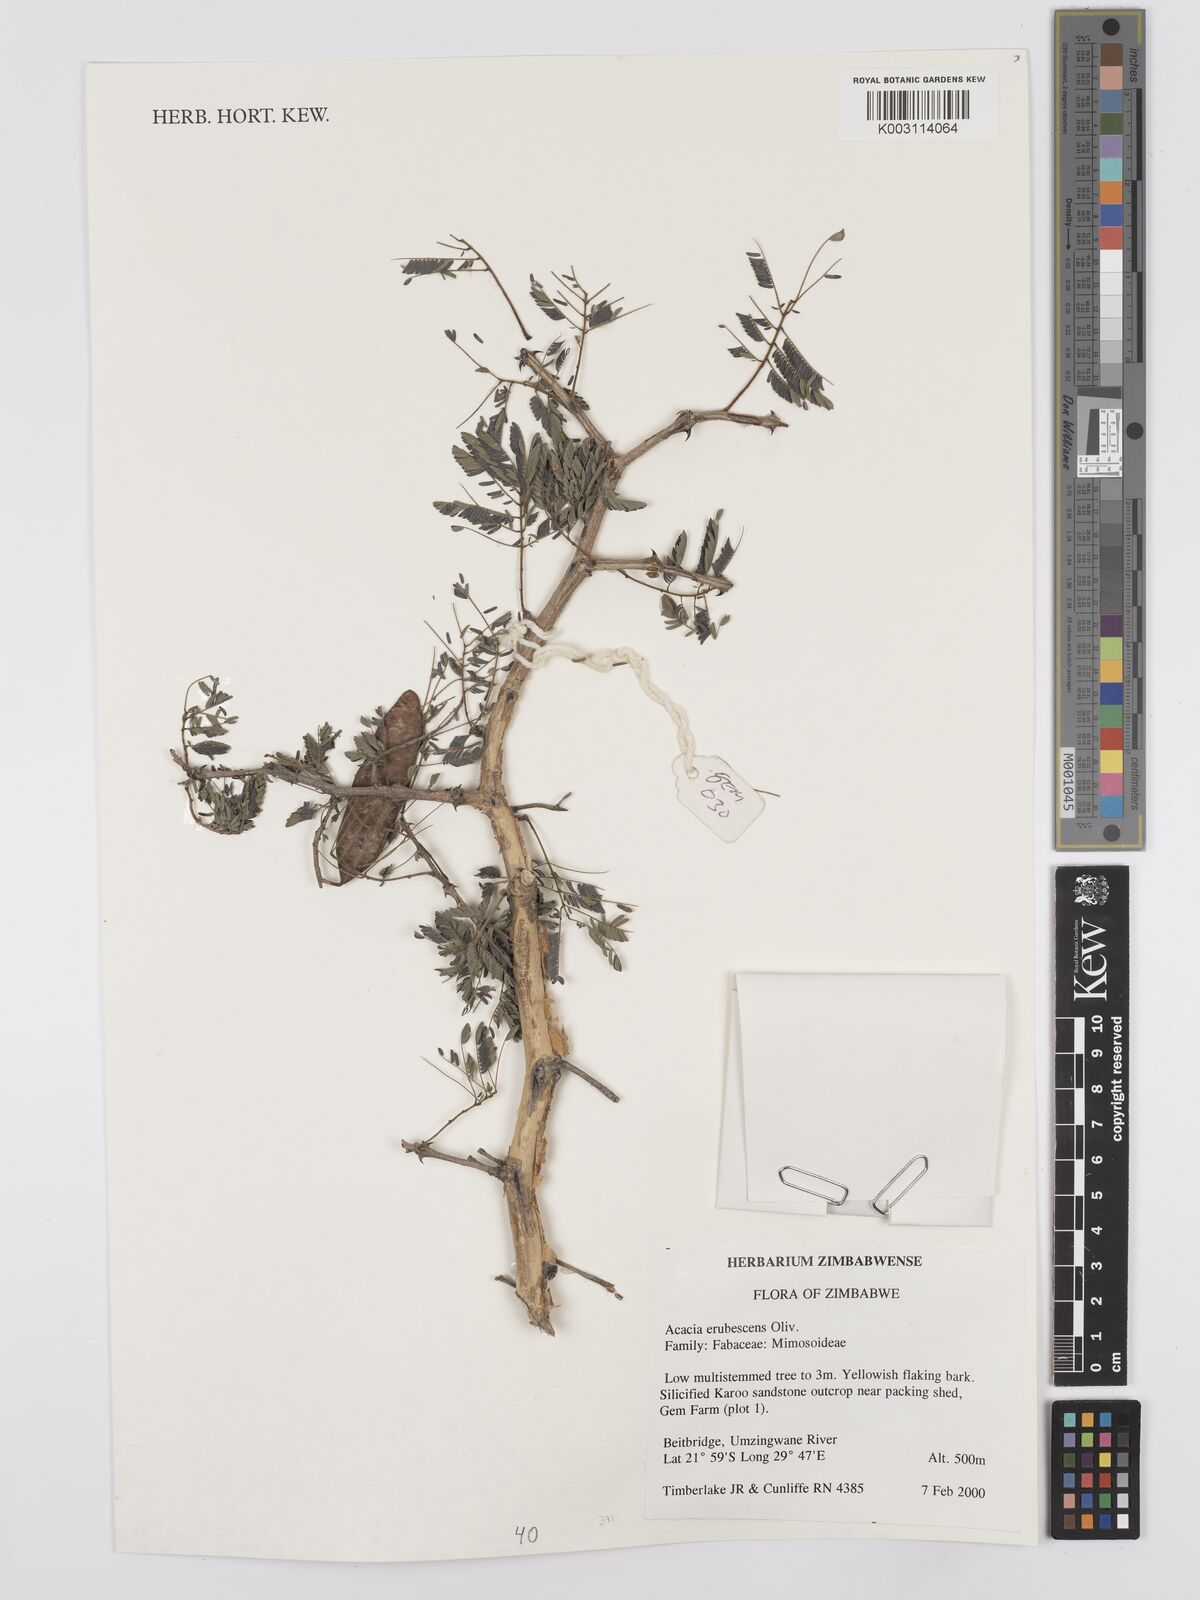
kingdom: Plantae
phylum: Tracheophyta
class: Magnoliopsida
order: Fabales
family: Fabaceae
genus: Senegalia
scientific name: Senegalia erubescens
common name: Bluethorn
